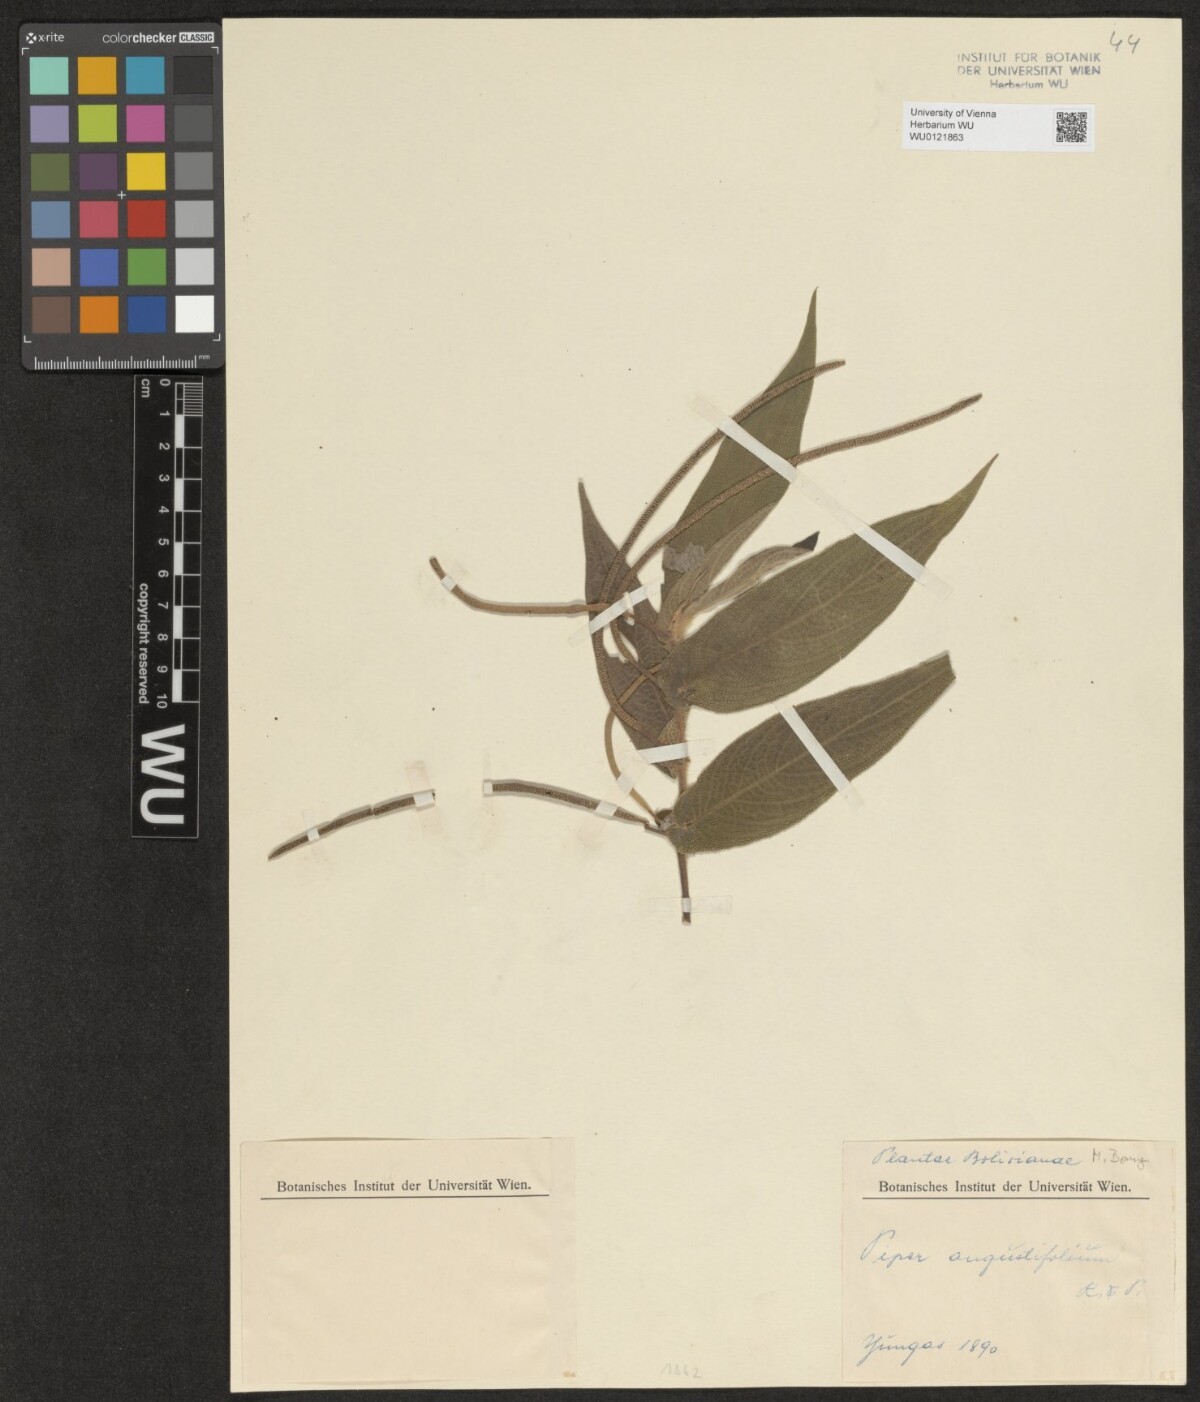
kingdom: Plantae
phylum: Tracheophyta
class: Magnoliopsida
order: Piperales
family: Piperaceae
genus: Piper
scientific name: Piper aduncum
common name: Spiked pepper
